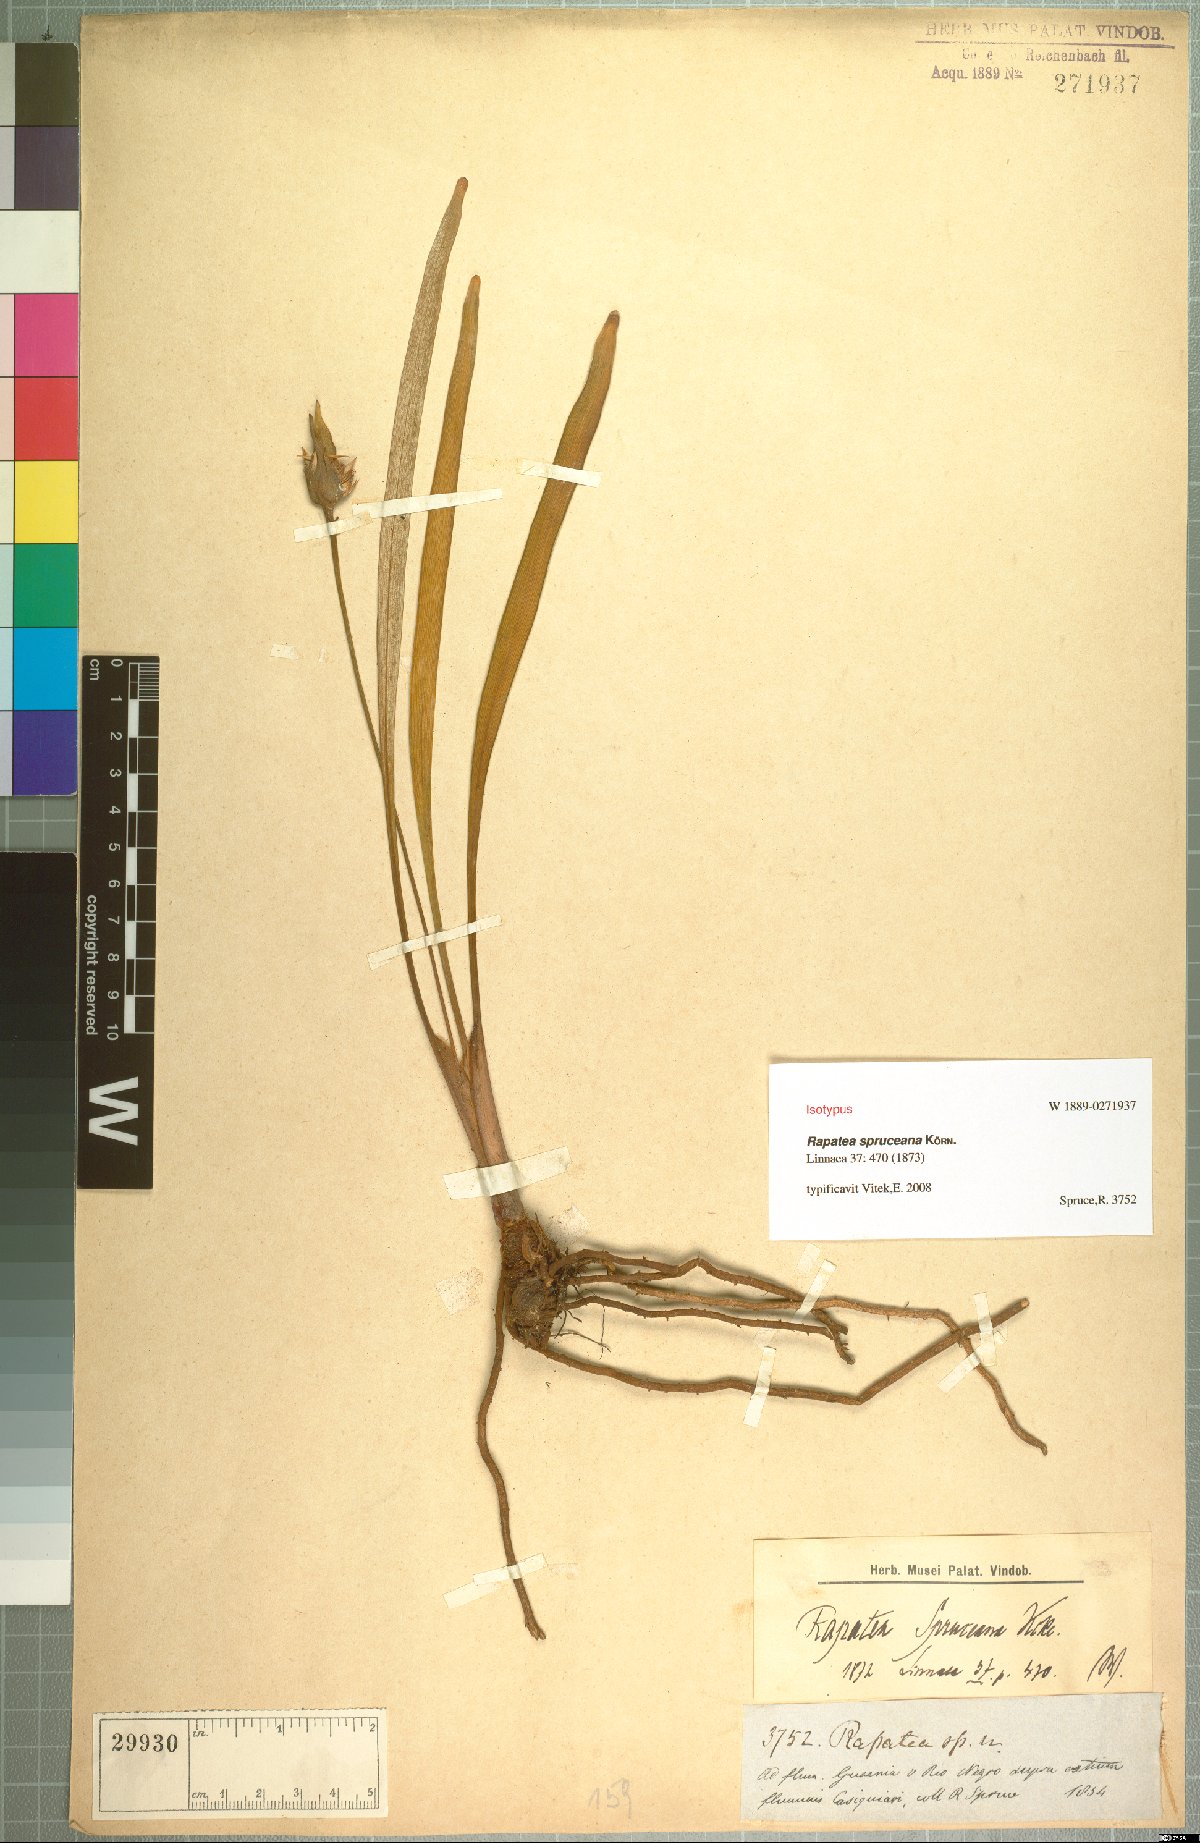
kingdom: Plantae
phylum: Tracheophyta
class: Liliopsida
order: Poales
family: Rapateaceae
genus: Rapatea
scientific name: Rapatea spruceana
